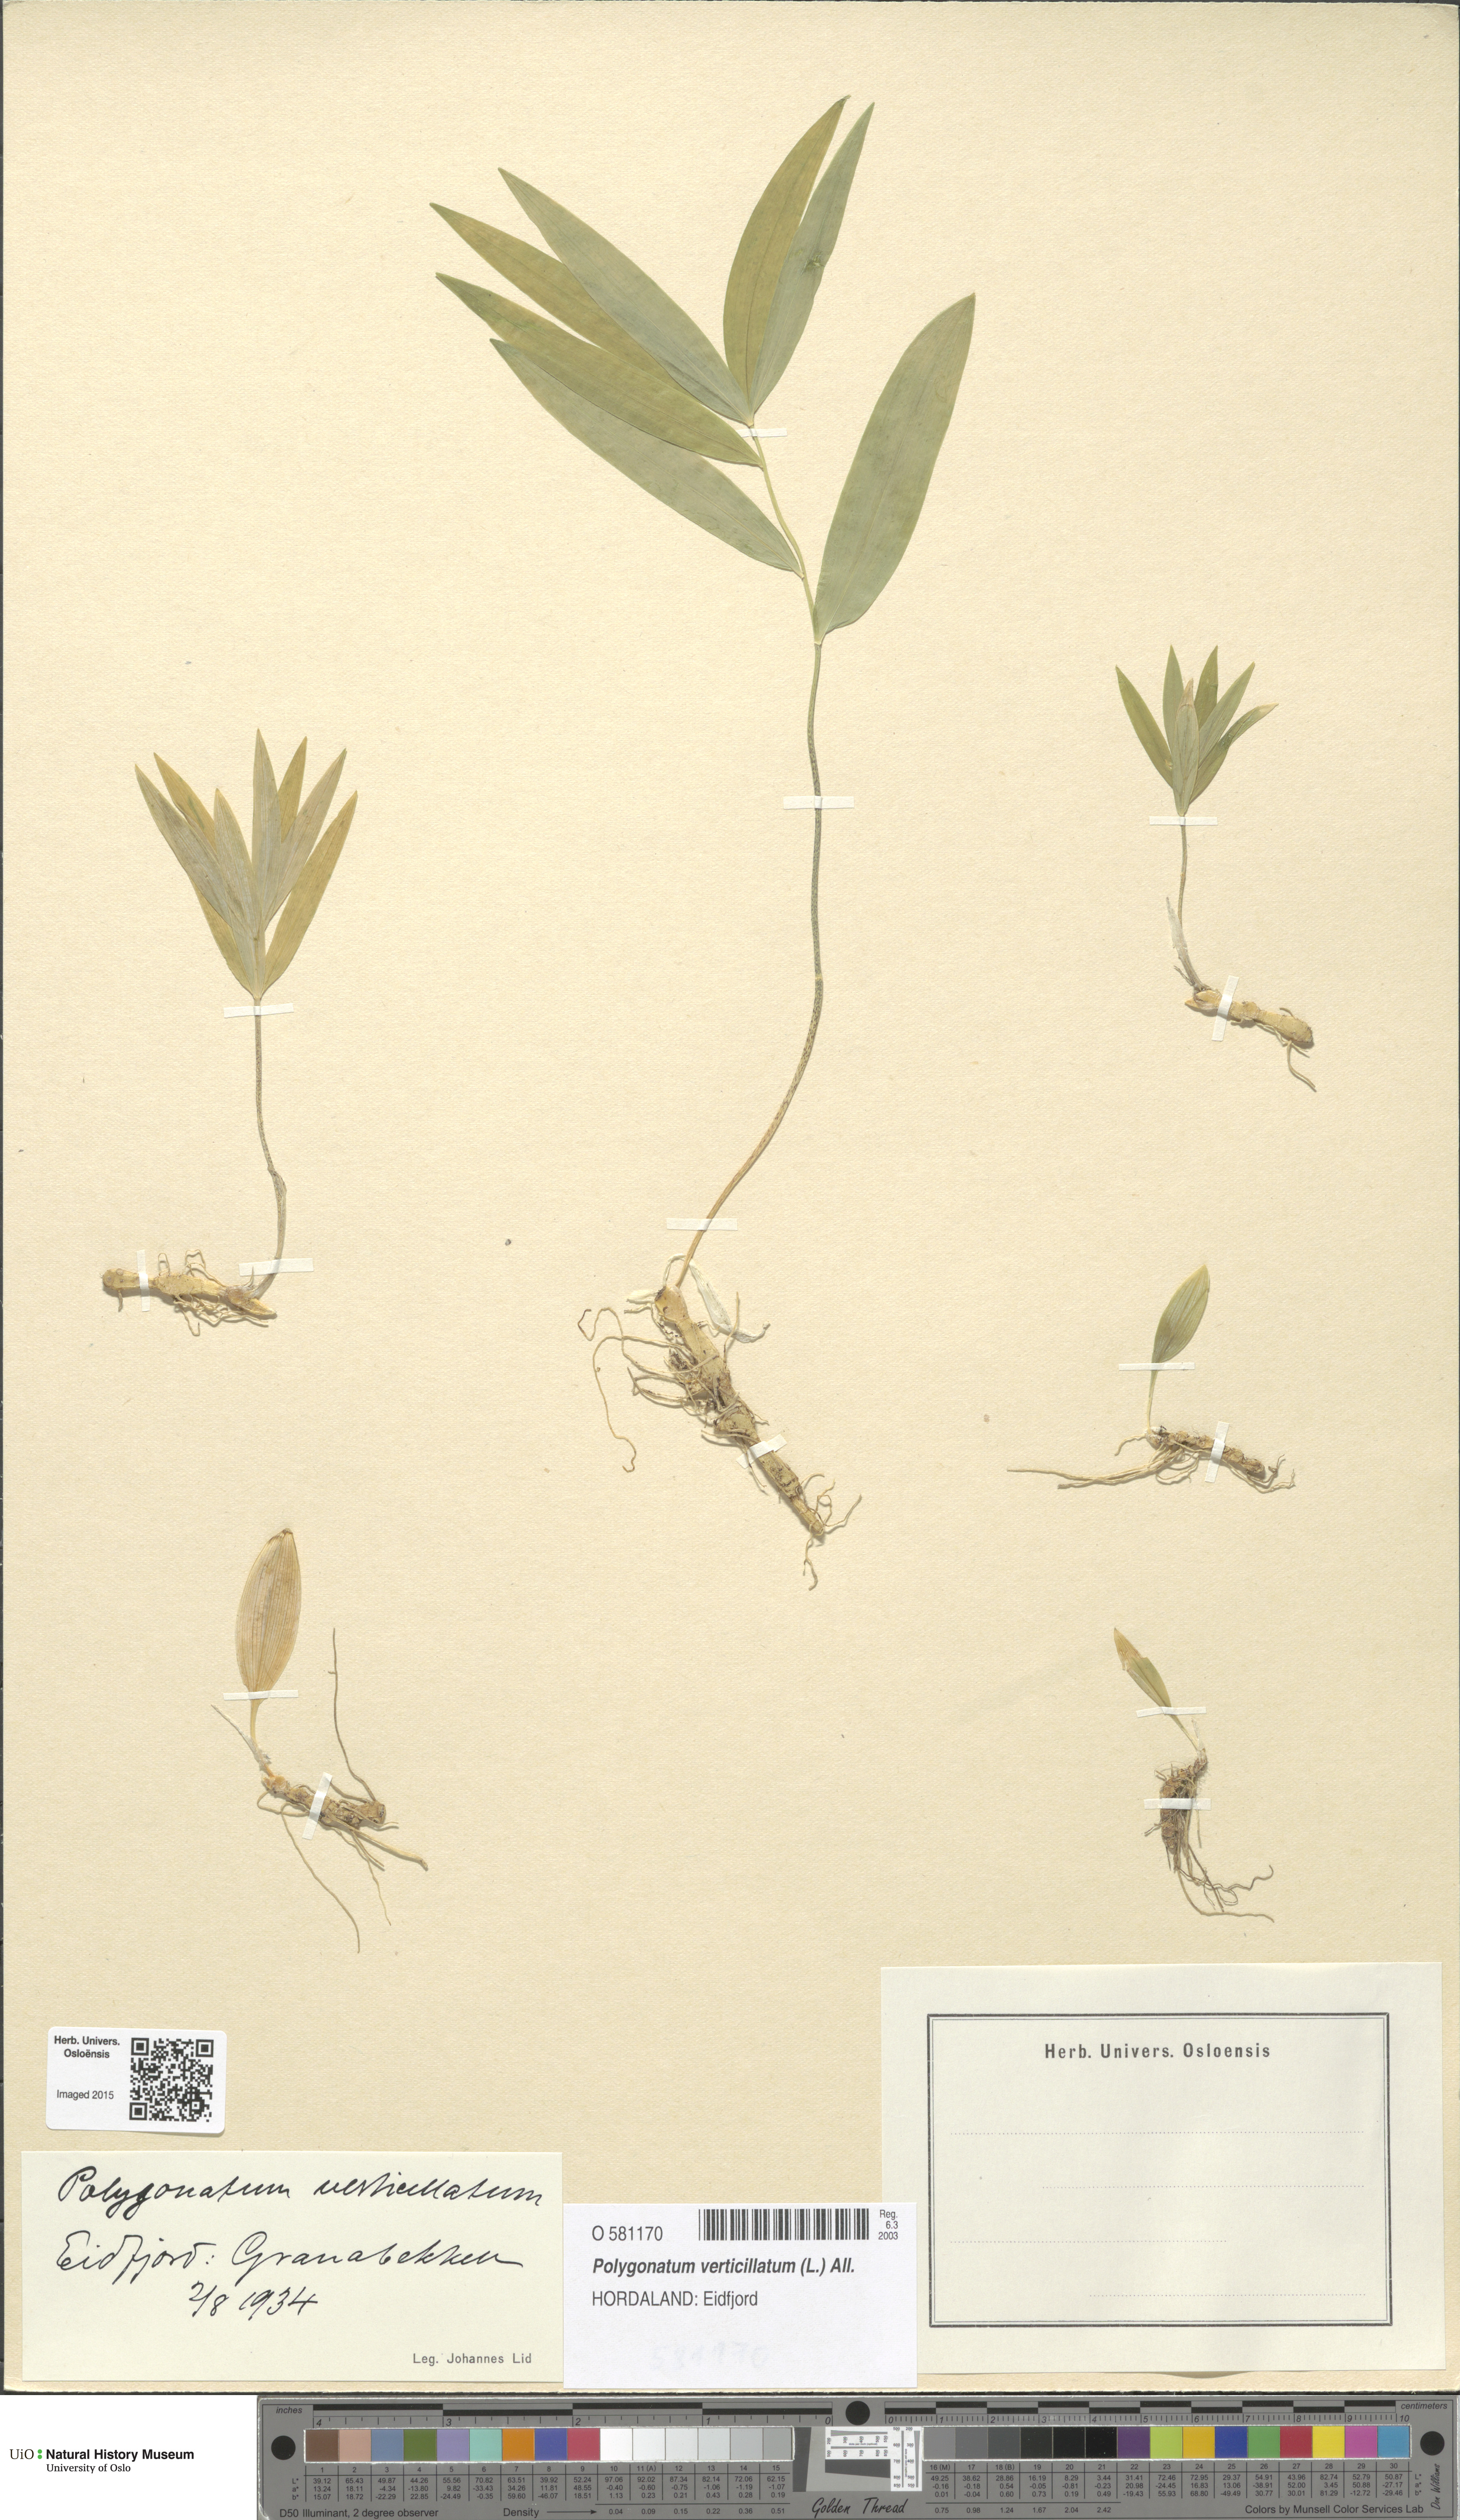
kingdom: Plantae
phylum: Tracheophyta
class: Liliopsida
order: Asparagales
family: Asparagaceae
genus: Polygonatum
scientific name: Polygonatum verticillatum
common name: Whorled solomon's-seal
